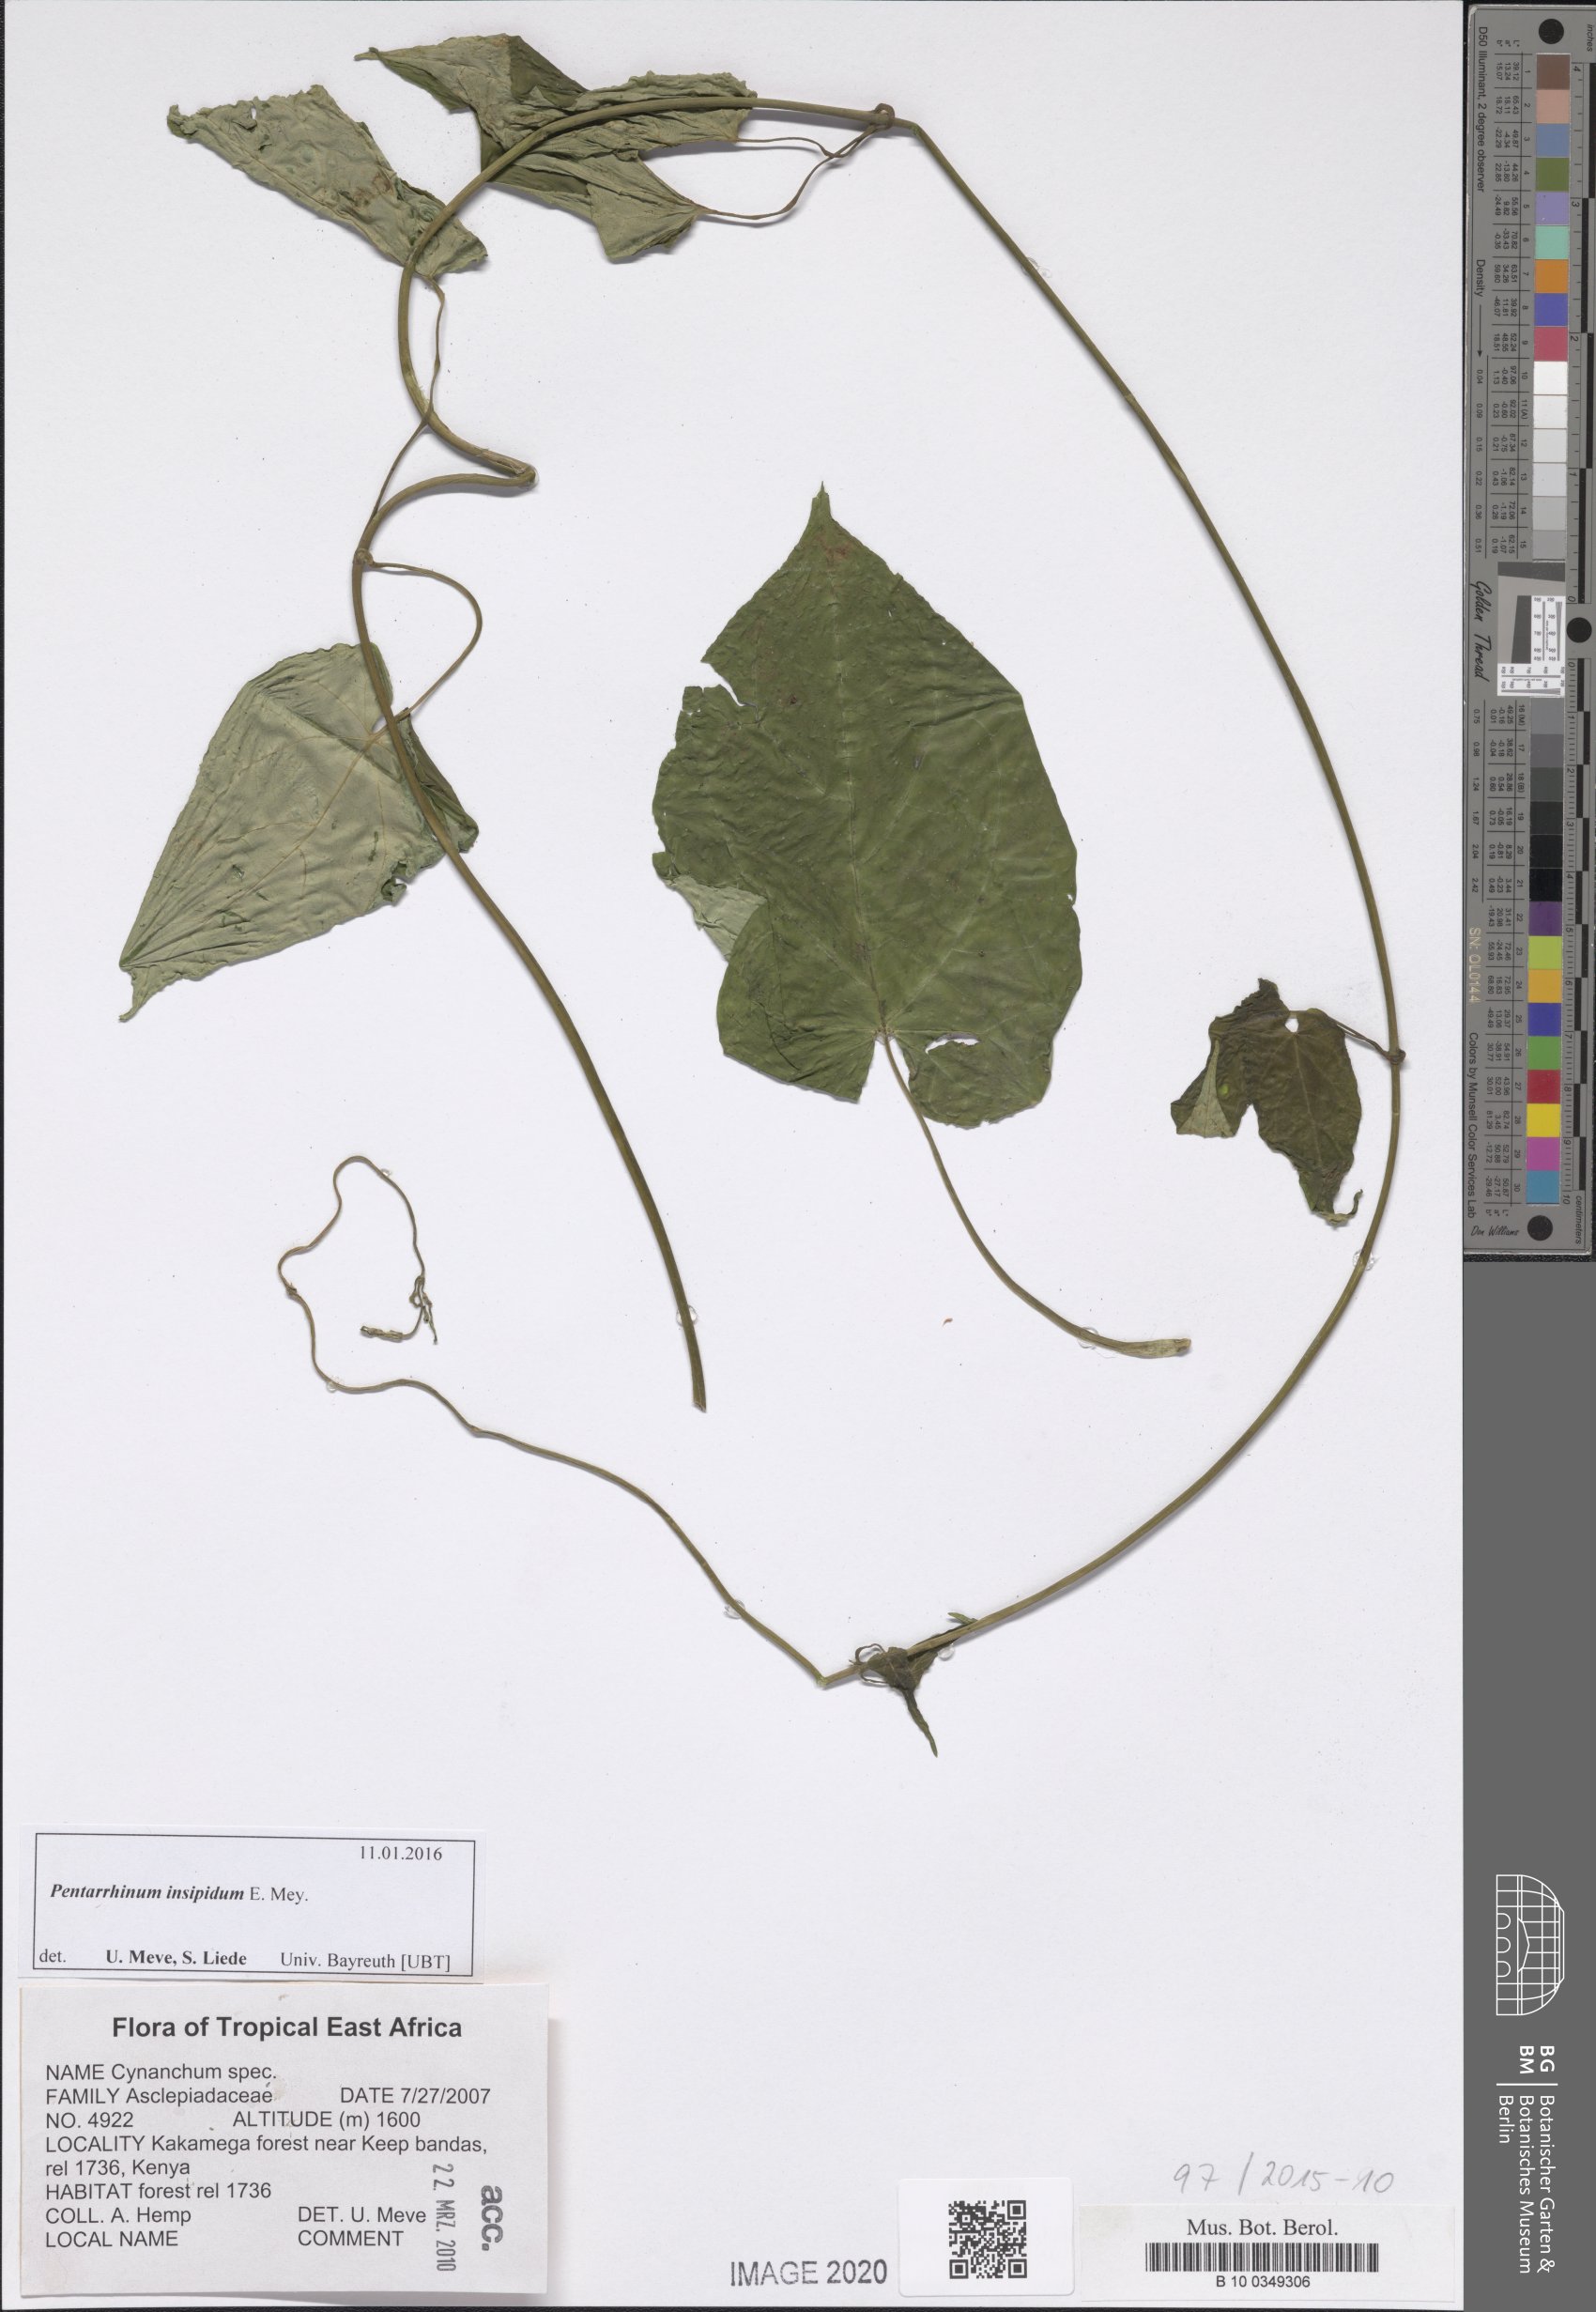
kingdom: Plantae
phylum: Tracheophyta
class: Magnoliopsida
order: Gentianales
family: Apocynaceae
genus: Cynanchum
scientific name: Cynanchum
